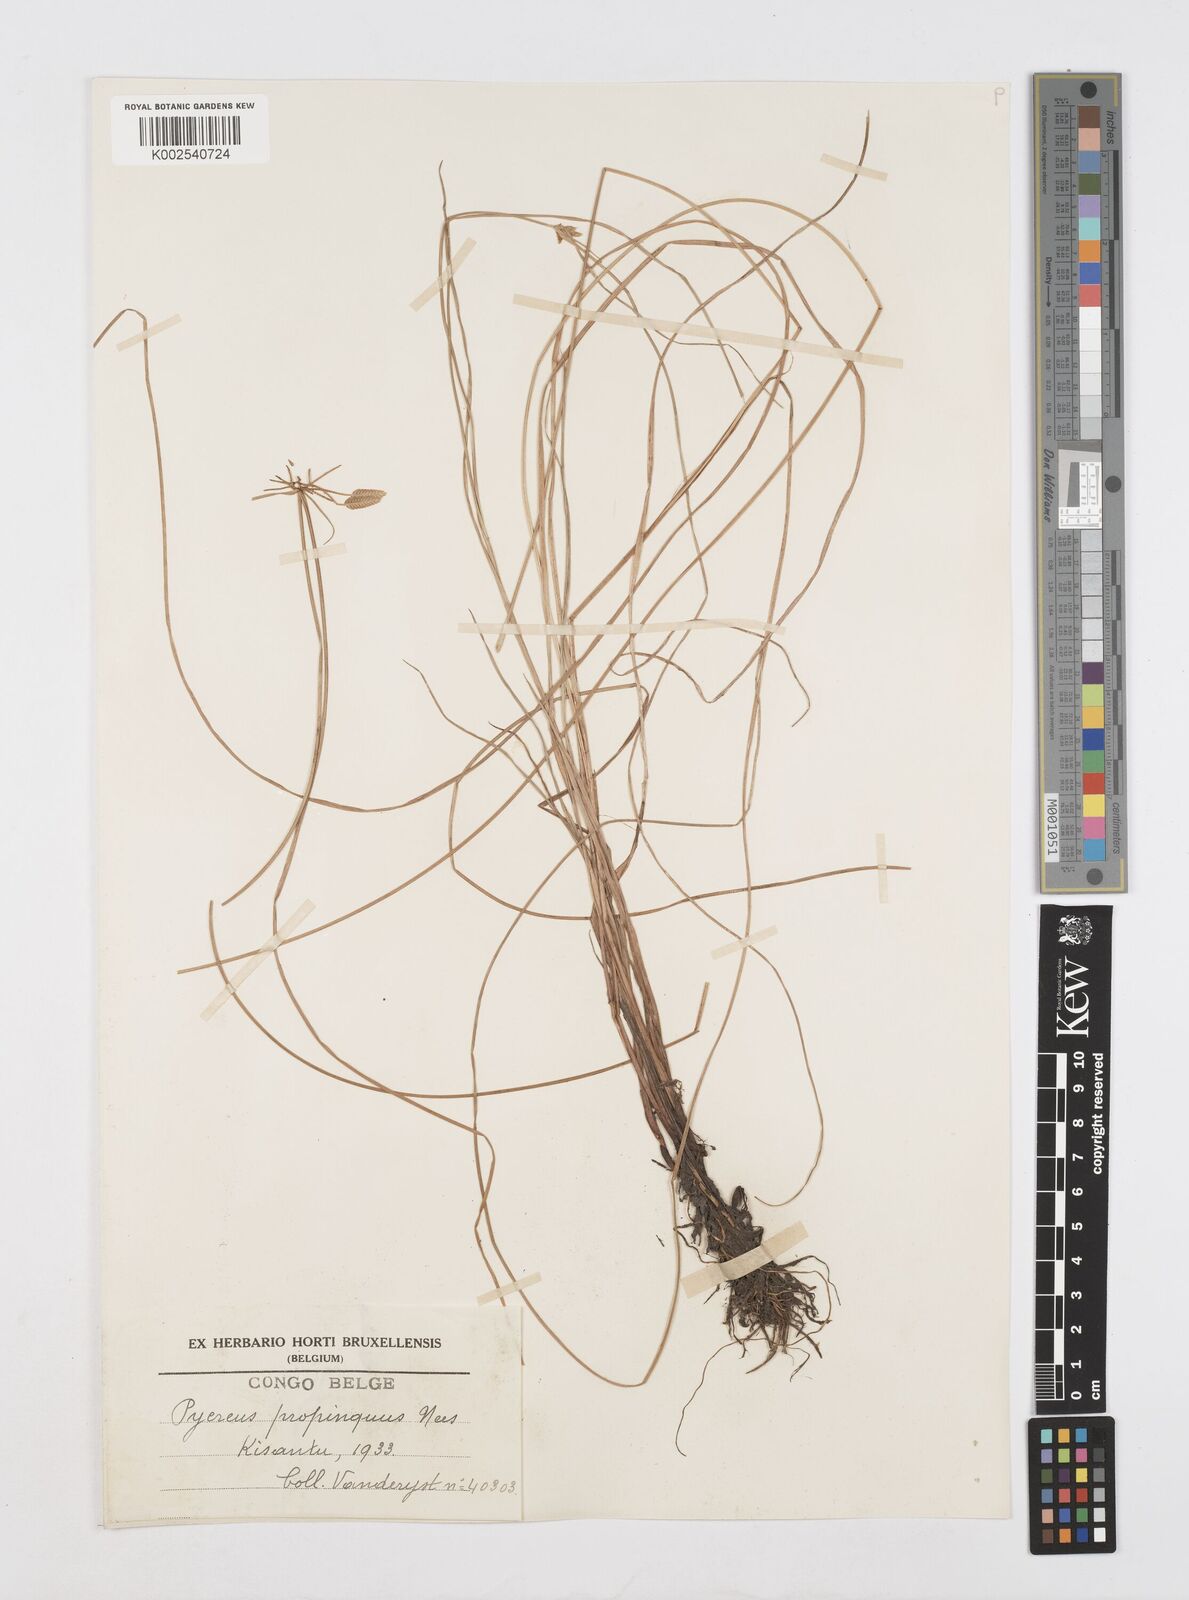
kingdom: Plantae
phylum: Tracheophyta
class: Liliopsida
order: Poales
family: Cyperaceae
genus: Cyperus
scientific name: Cyperus
